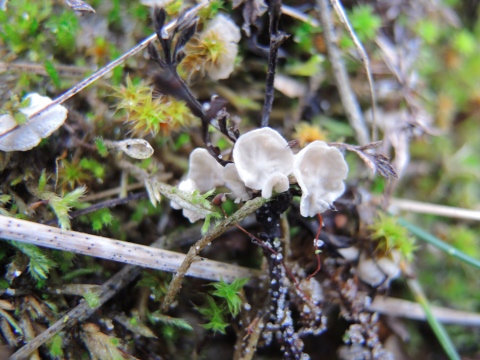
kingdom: Fungi
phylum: Basidiomycota
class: Agaricomycetes
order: Agaricales
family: Hygrophoraceae
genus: Arrhenia
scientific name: Arrhenia retiruga
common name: lille fontænehat
